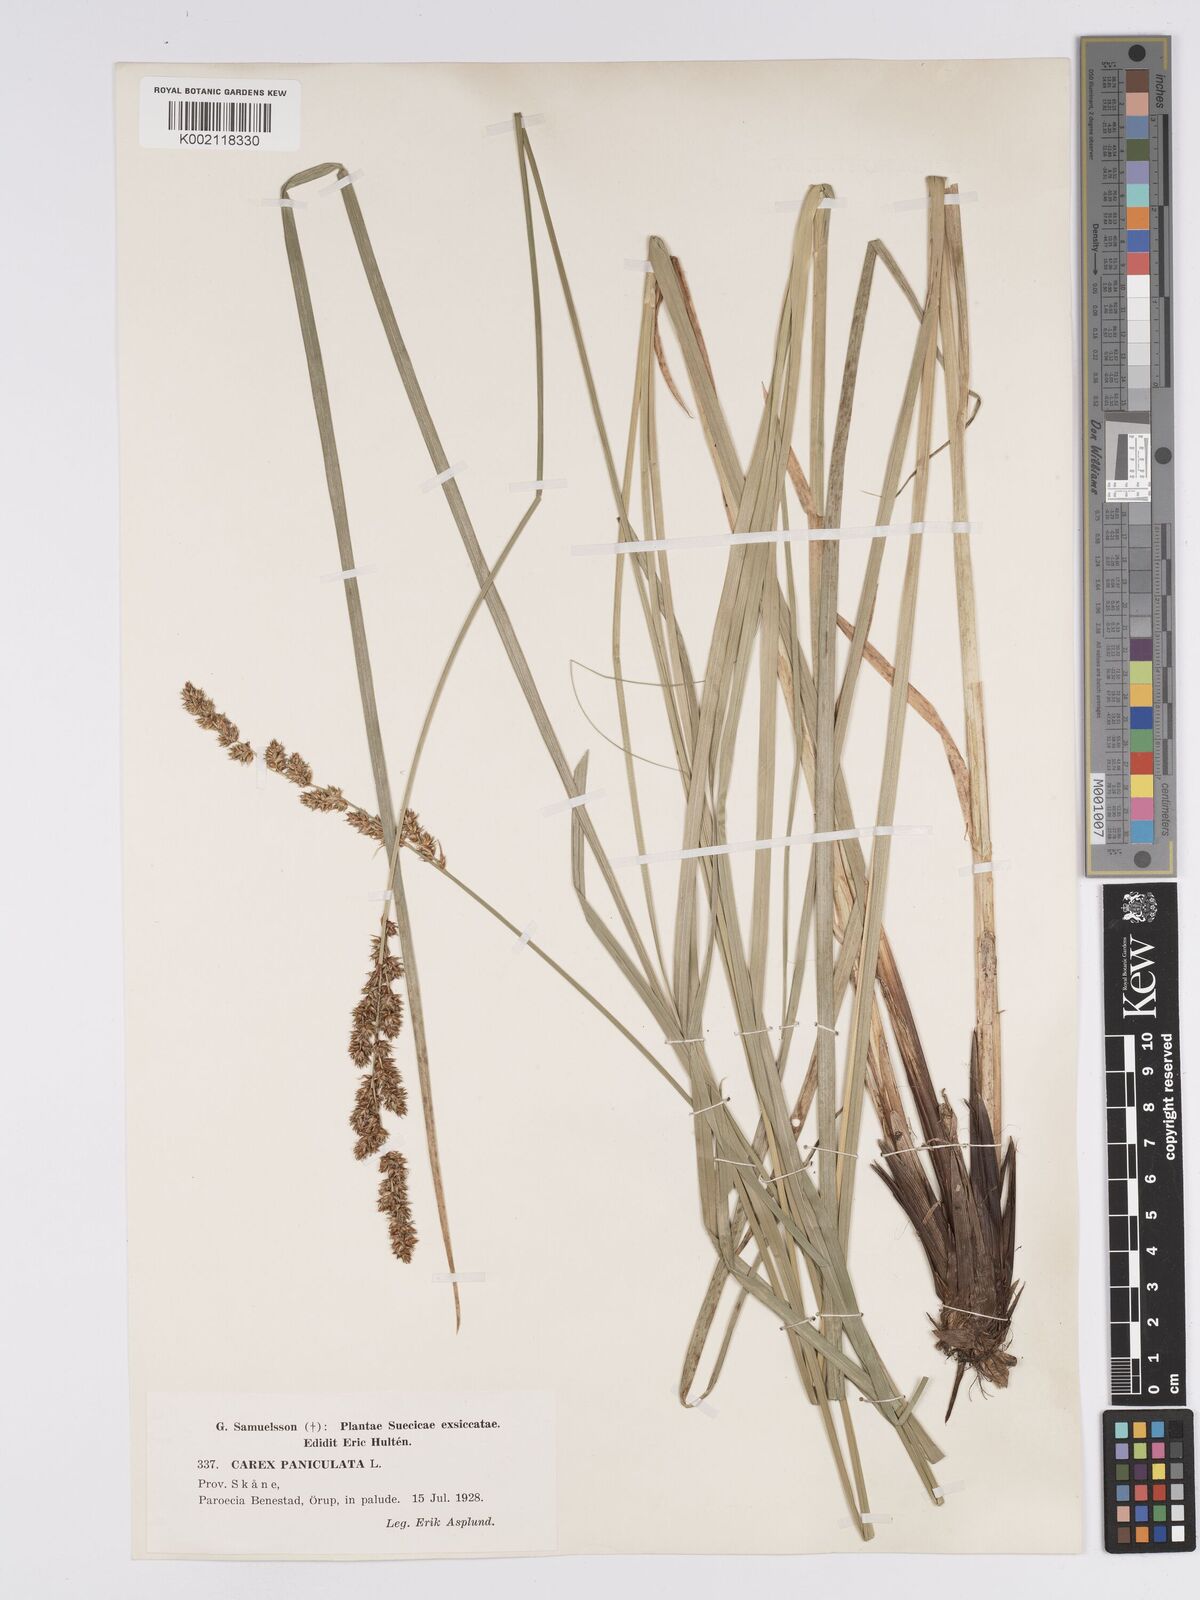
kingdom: Plantae
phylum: Tracheophyta
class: Liliopsida
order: Poales
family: Cyperaceae
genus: Carex
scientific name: Carex paniculata
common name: Greater tussock-sedge
